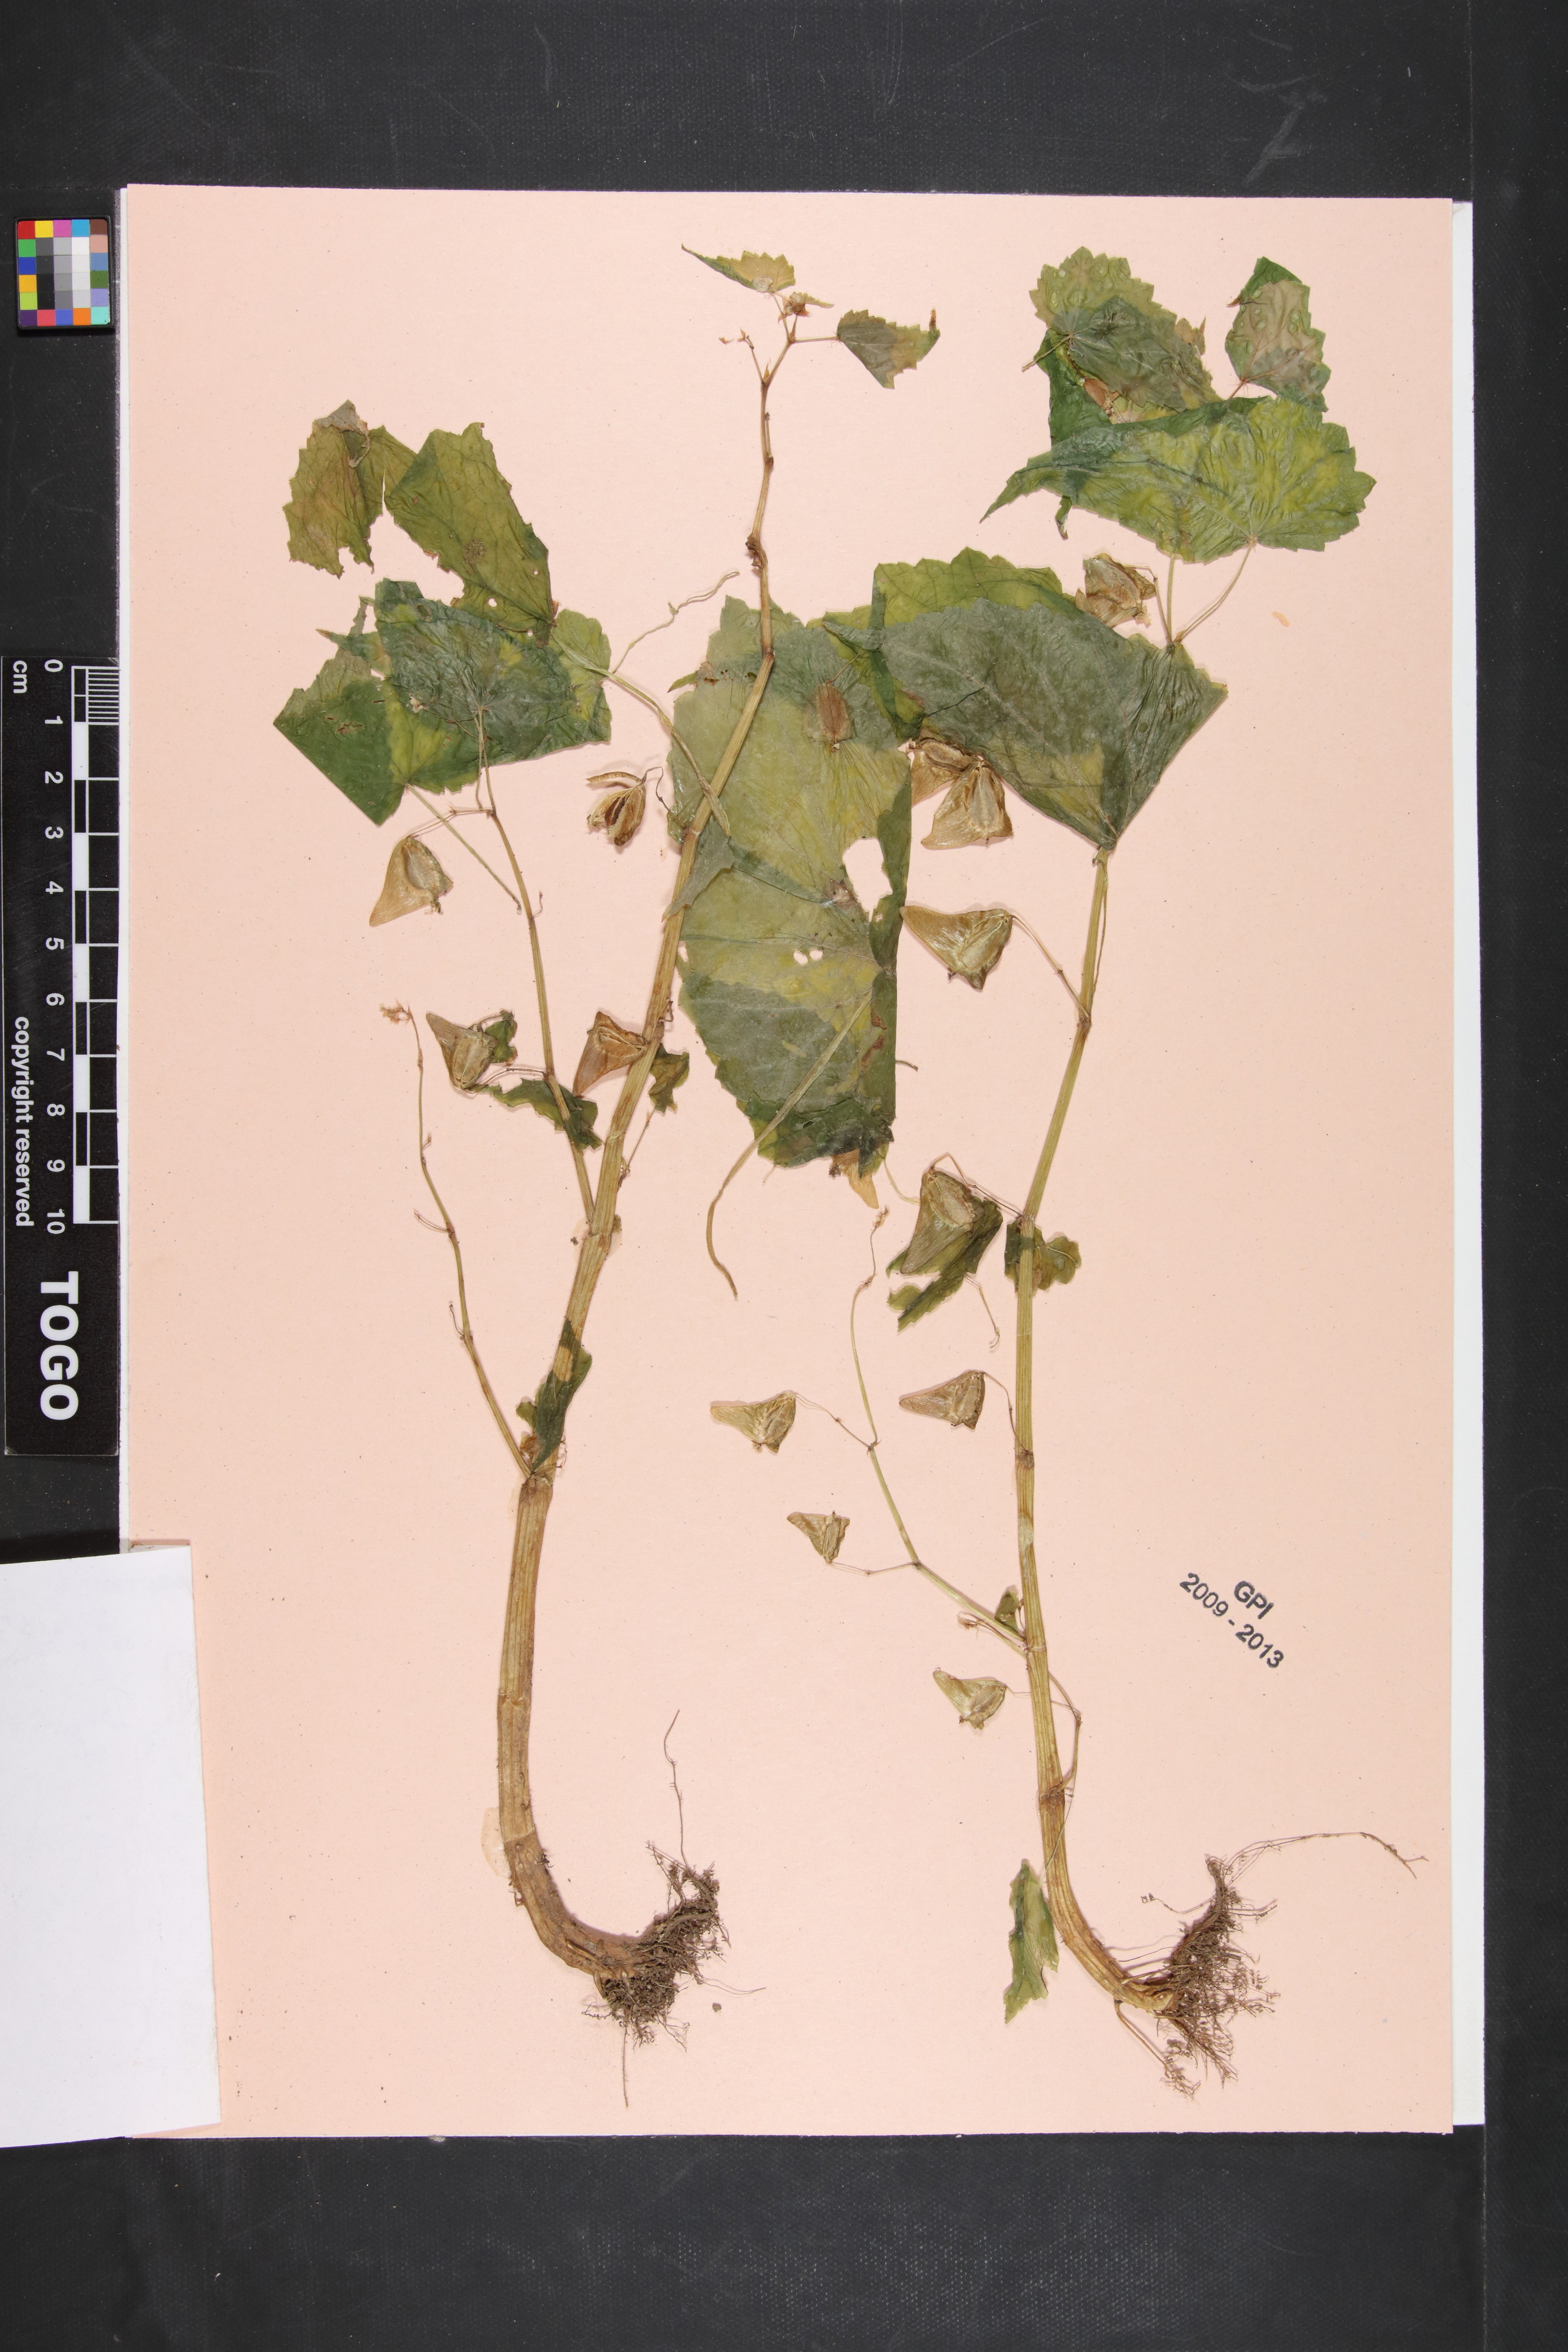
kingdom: Plantae
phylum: Tracheophyta
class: Magnoliopsida
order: Cucurbitales
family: Begoniaceae
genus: Begonia
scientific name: Begonia rostrata
